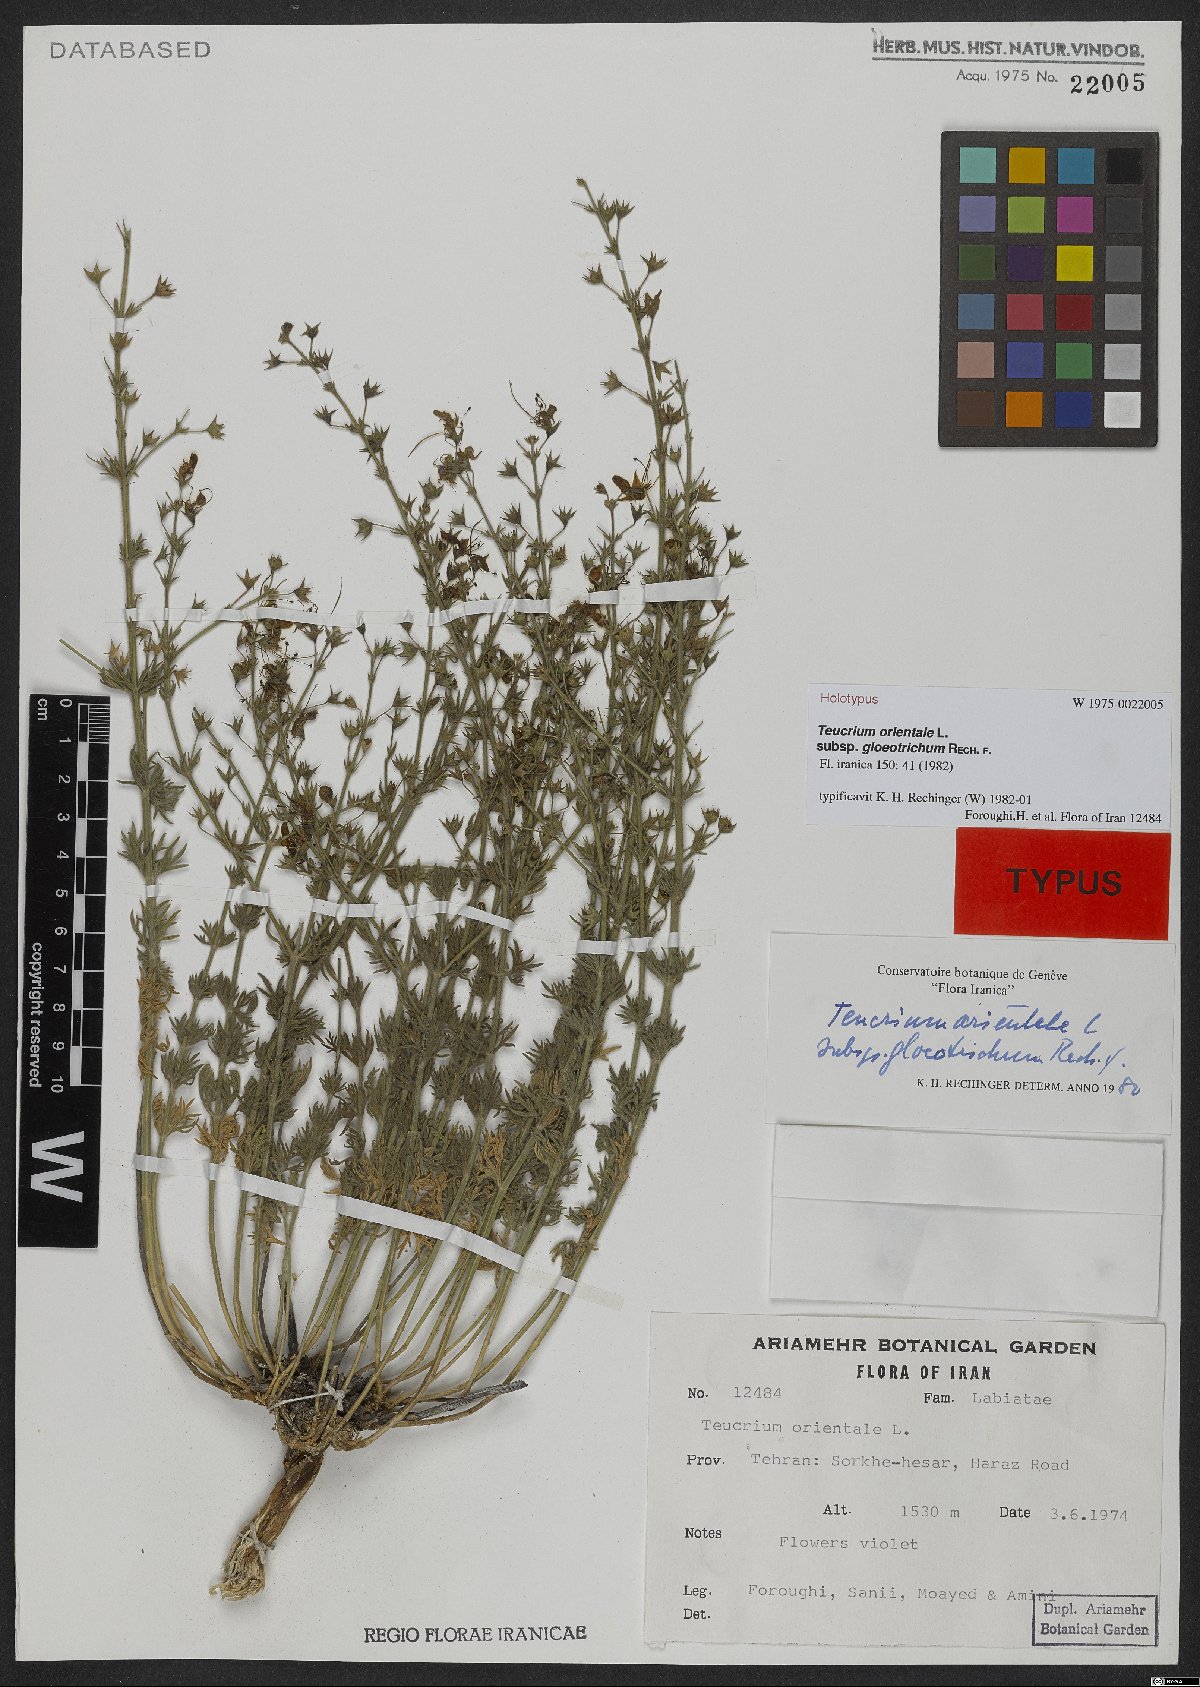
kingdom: Plantae
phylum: Tracheophyta
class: Magnoliopsida
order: Lamiales
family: Lamiaceae
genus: Teucrium
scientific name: Teucrium orientale
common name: Oriental germander
